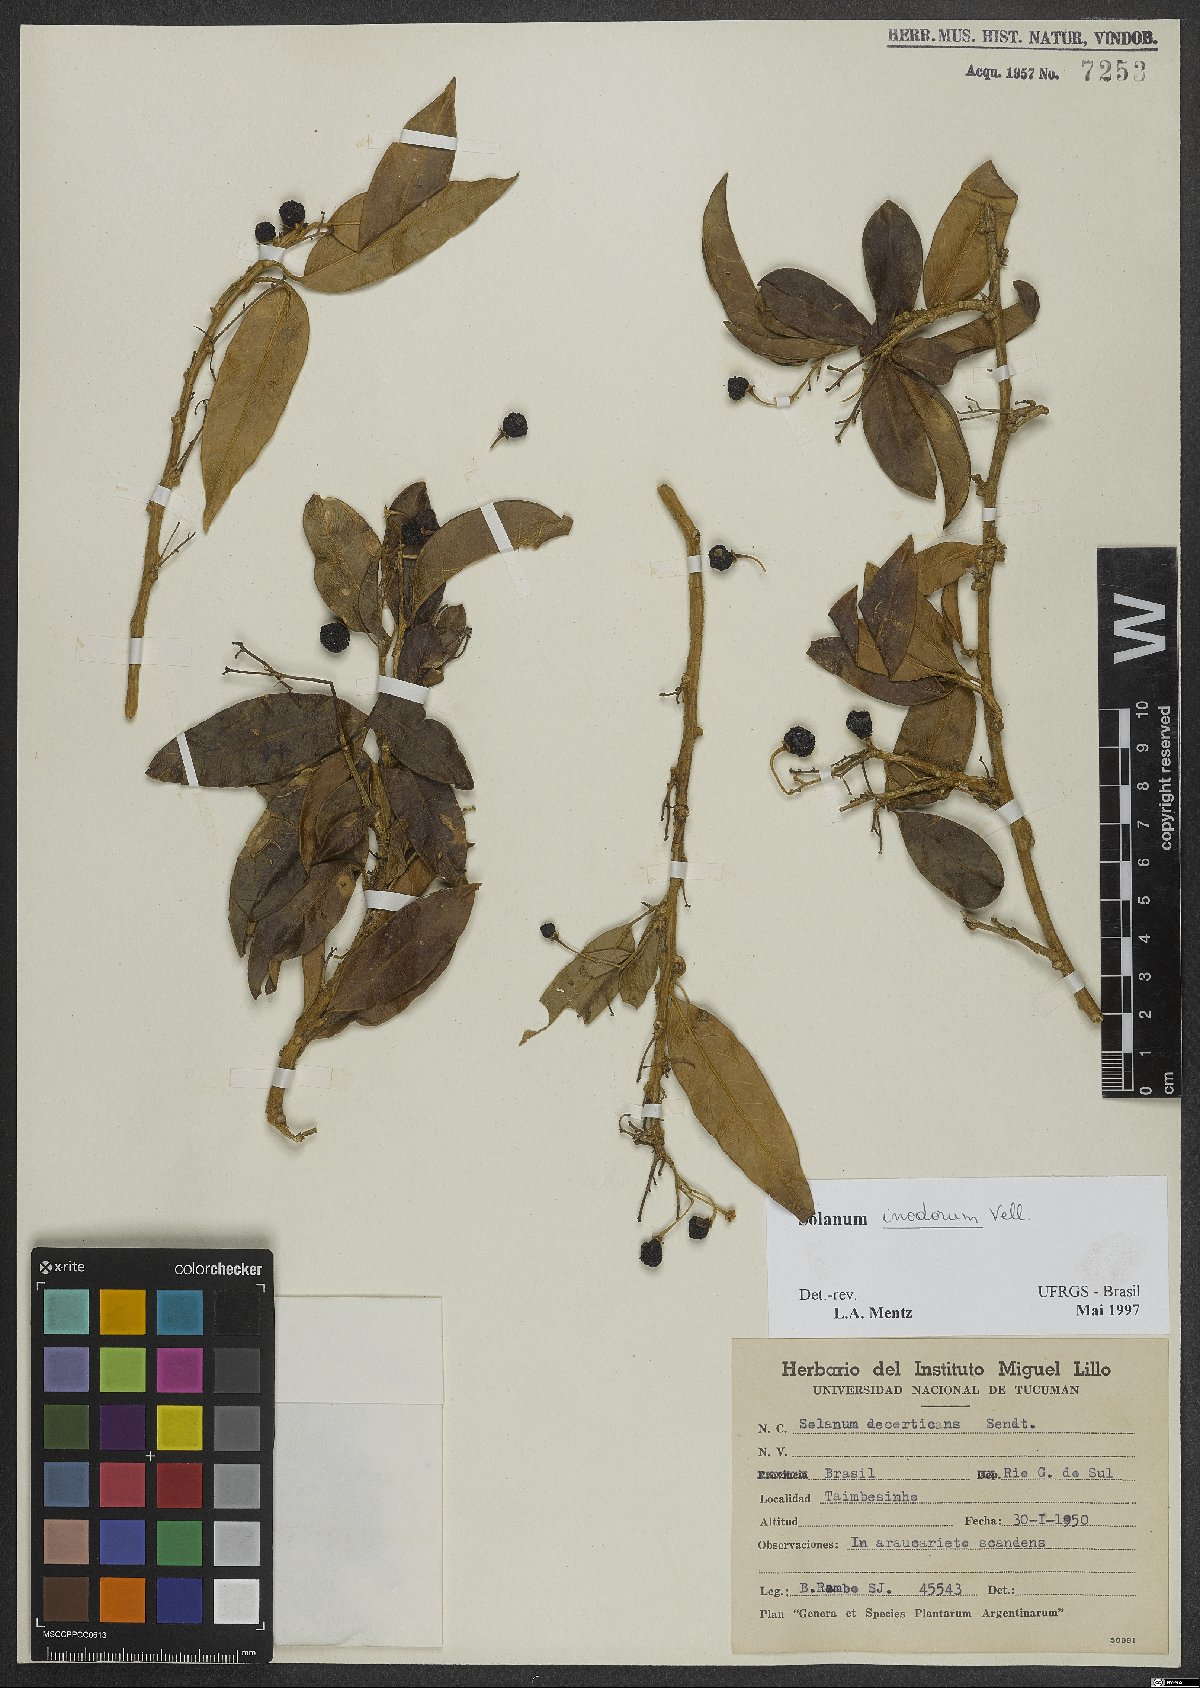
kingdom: Plantae
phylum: Tracheophyta
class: Magnoliopsida
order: Solanales
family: Solanaceae
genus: Solanum
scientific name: Solanum inodorum
